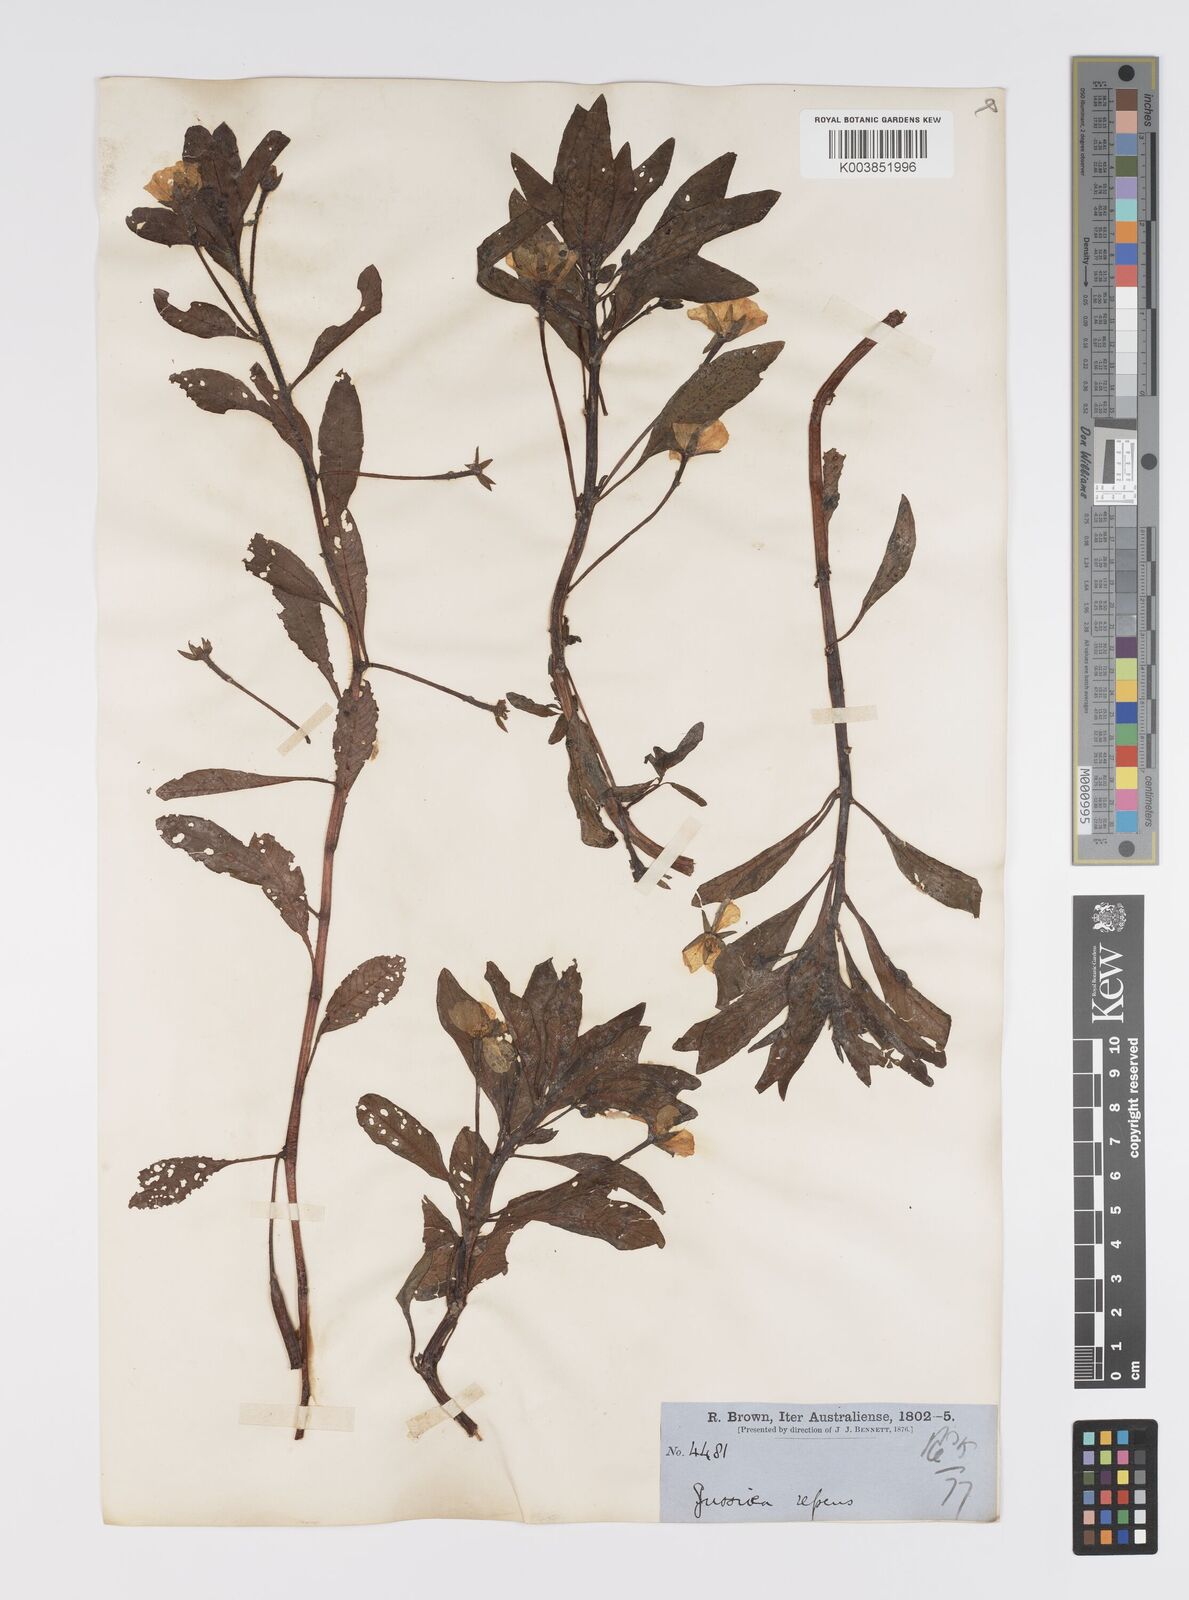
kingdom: Plantae
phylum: Tracheophyta
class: Magnoliopsida
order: Myrtales
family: Onagraceae
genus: Ludwigia
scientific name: Ludwigia peploides
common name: Floating primrose-willow
